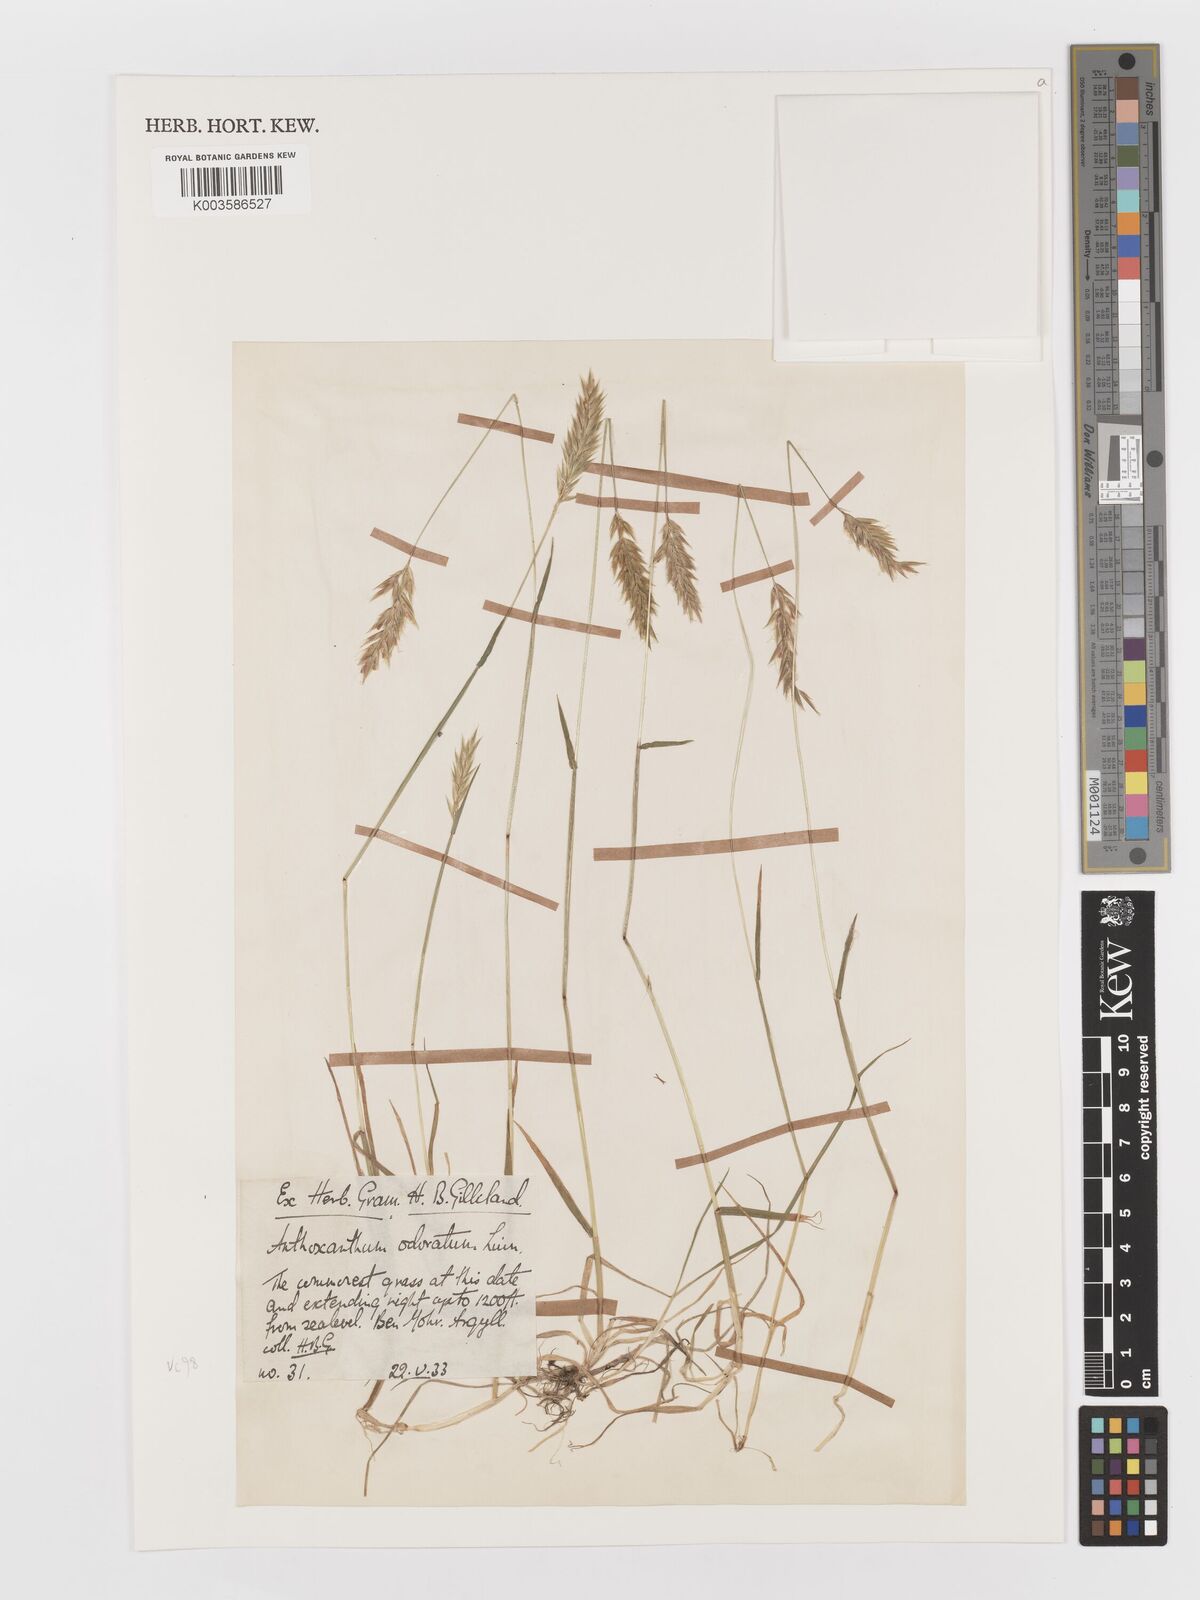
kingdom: Plantae
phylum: Tracheophyta
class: Liliopsida
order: Poales
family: Poaceae
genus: Anthoxanthum
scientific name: Anthoxanthum odoratum
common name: Sweet vernalgrass
